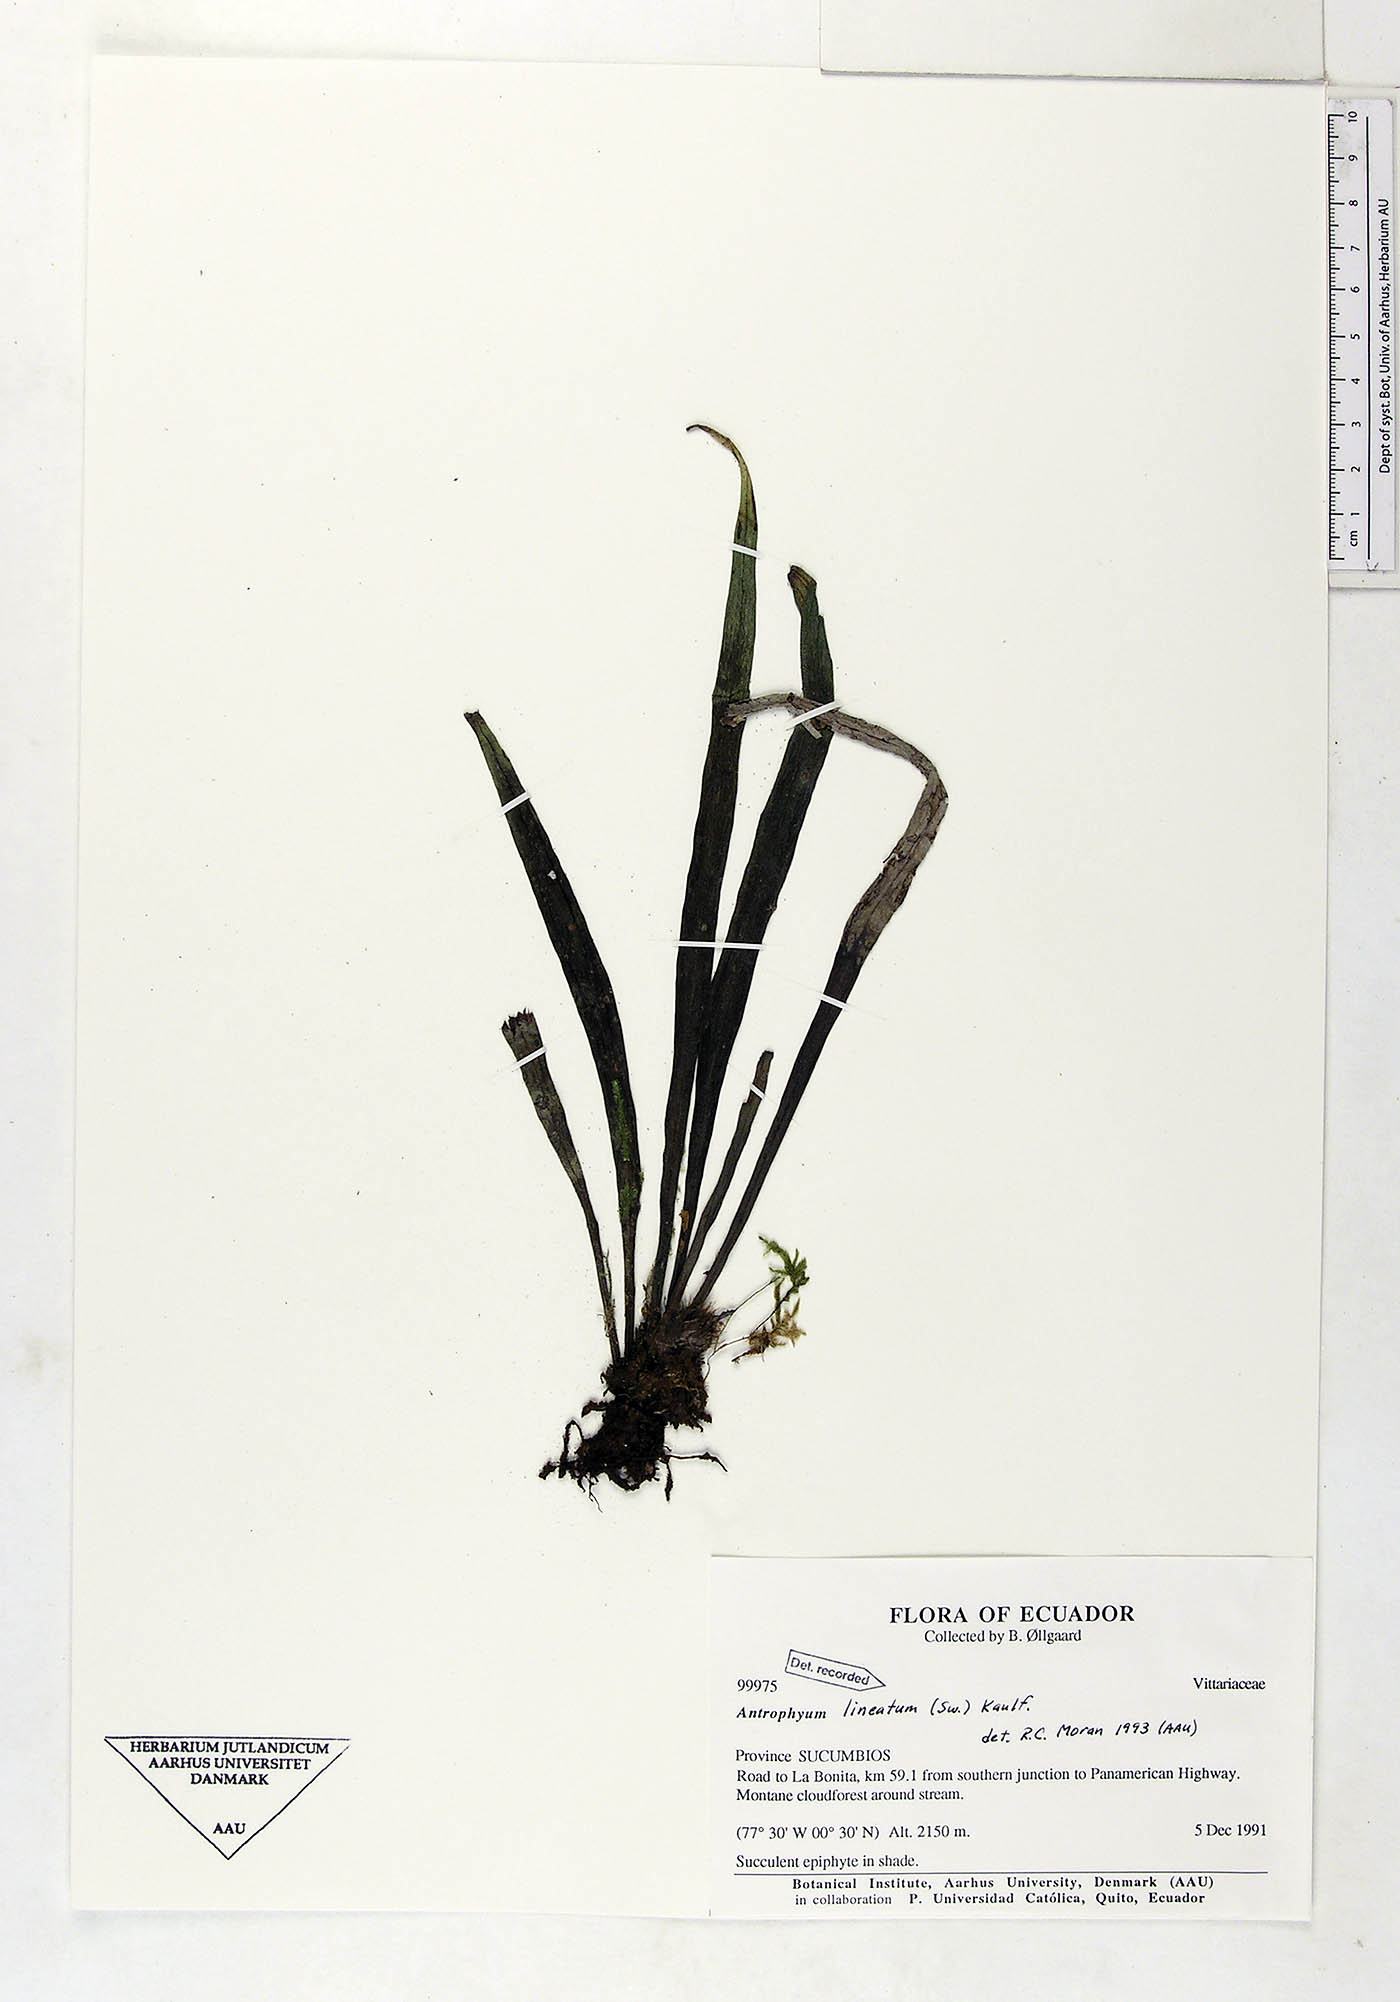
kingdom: Plantae
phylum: Tracheophyta
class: Polypodiopsida
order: Polypodiales
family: Pteridaceae
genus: Polytaenium
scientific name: Polytaenium lineatum
